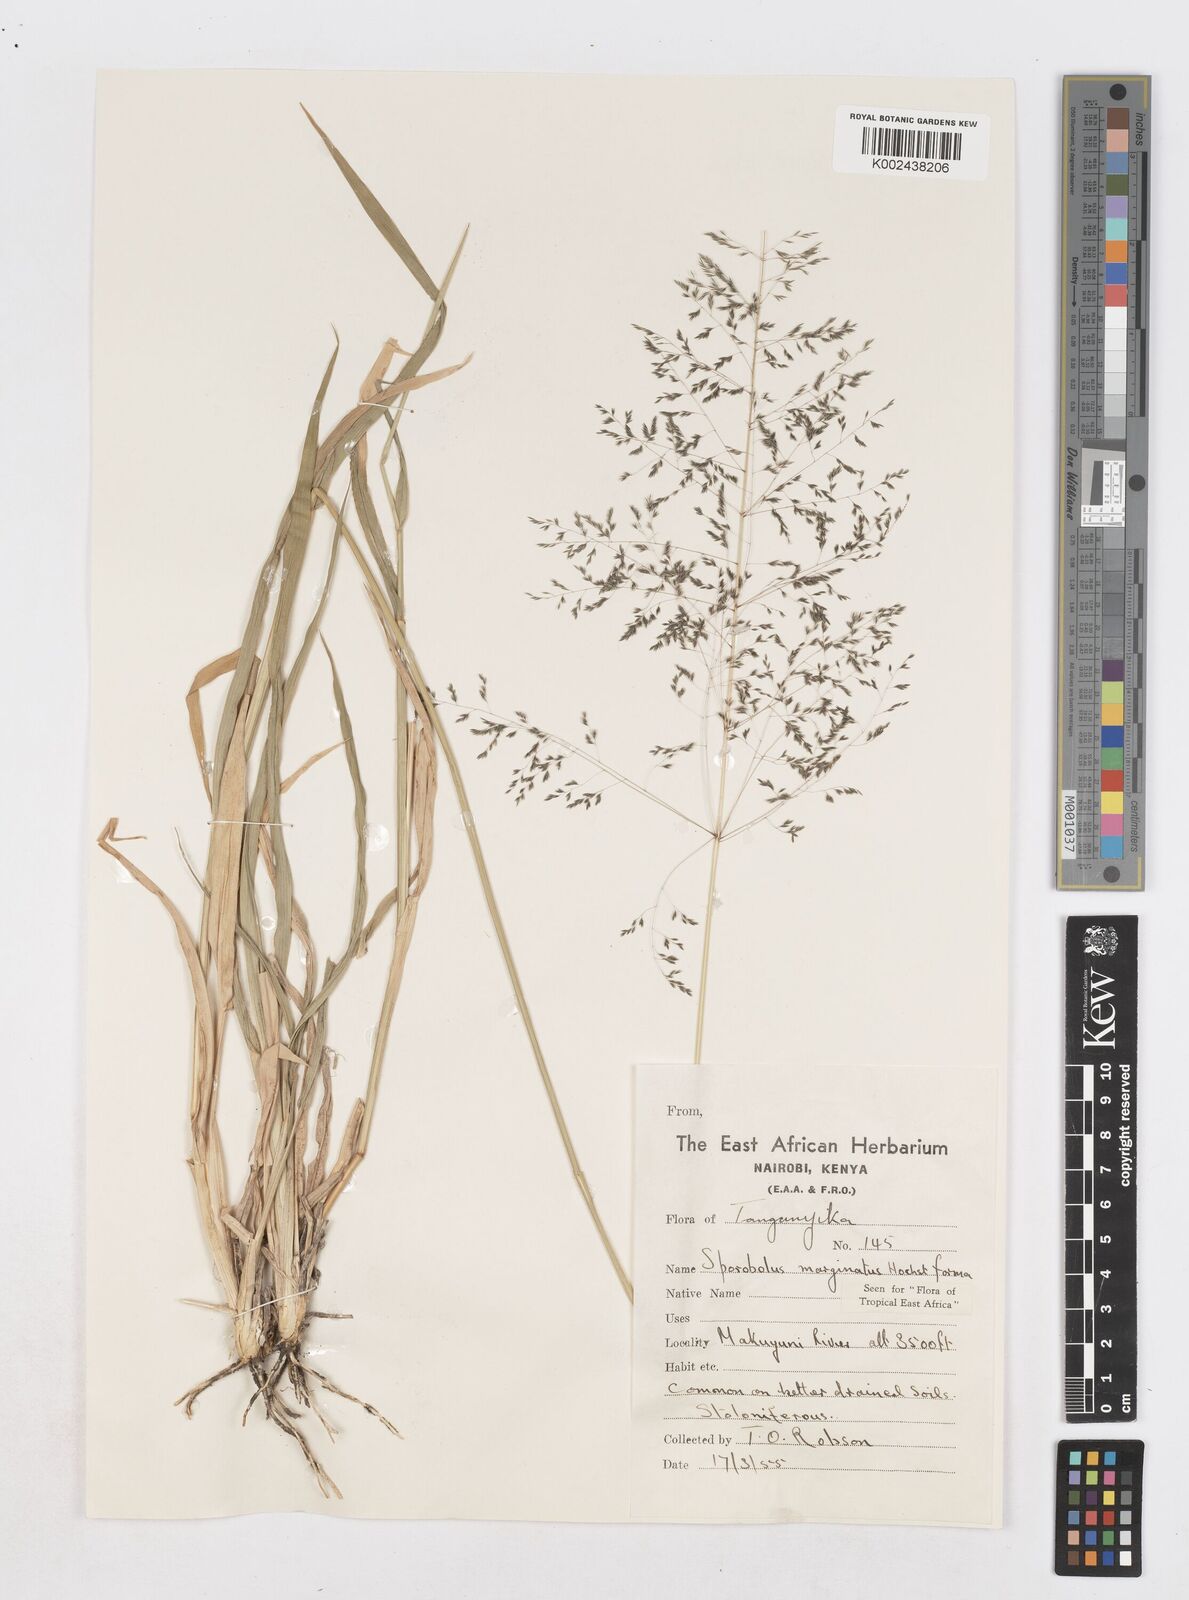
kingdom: Plantae
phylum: Tracheophyta
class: Liliopsida
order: Poales
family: Poaceae
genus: Sporobolus
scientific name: Sporobolus ioclados
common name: Pan dropseed
